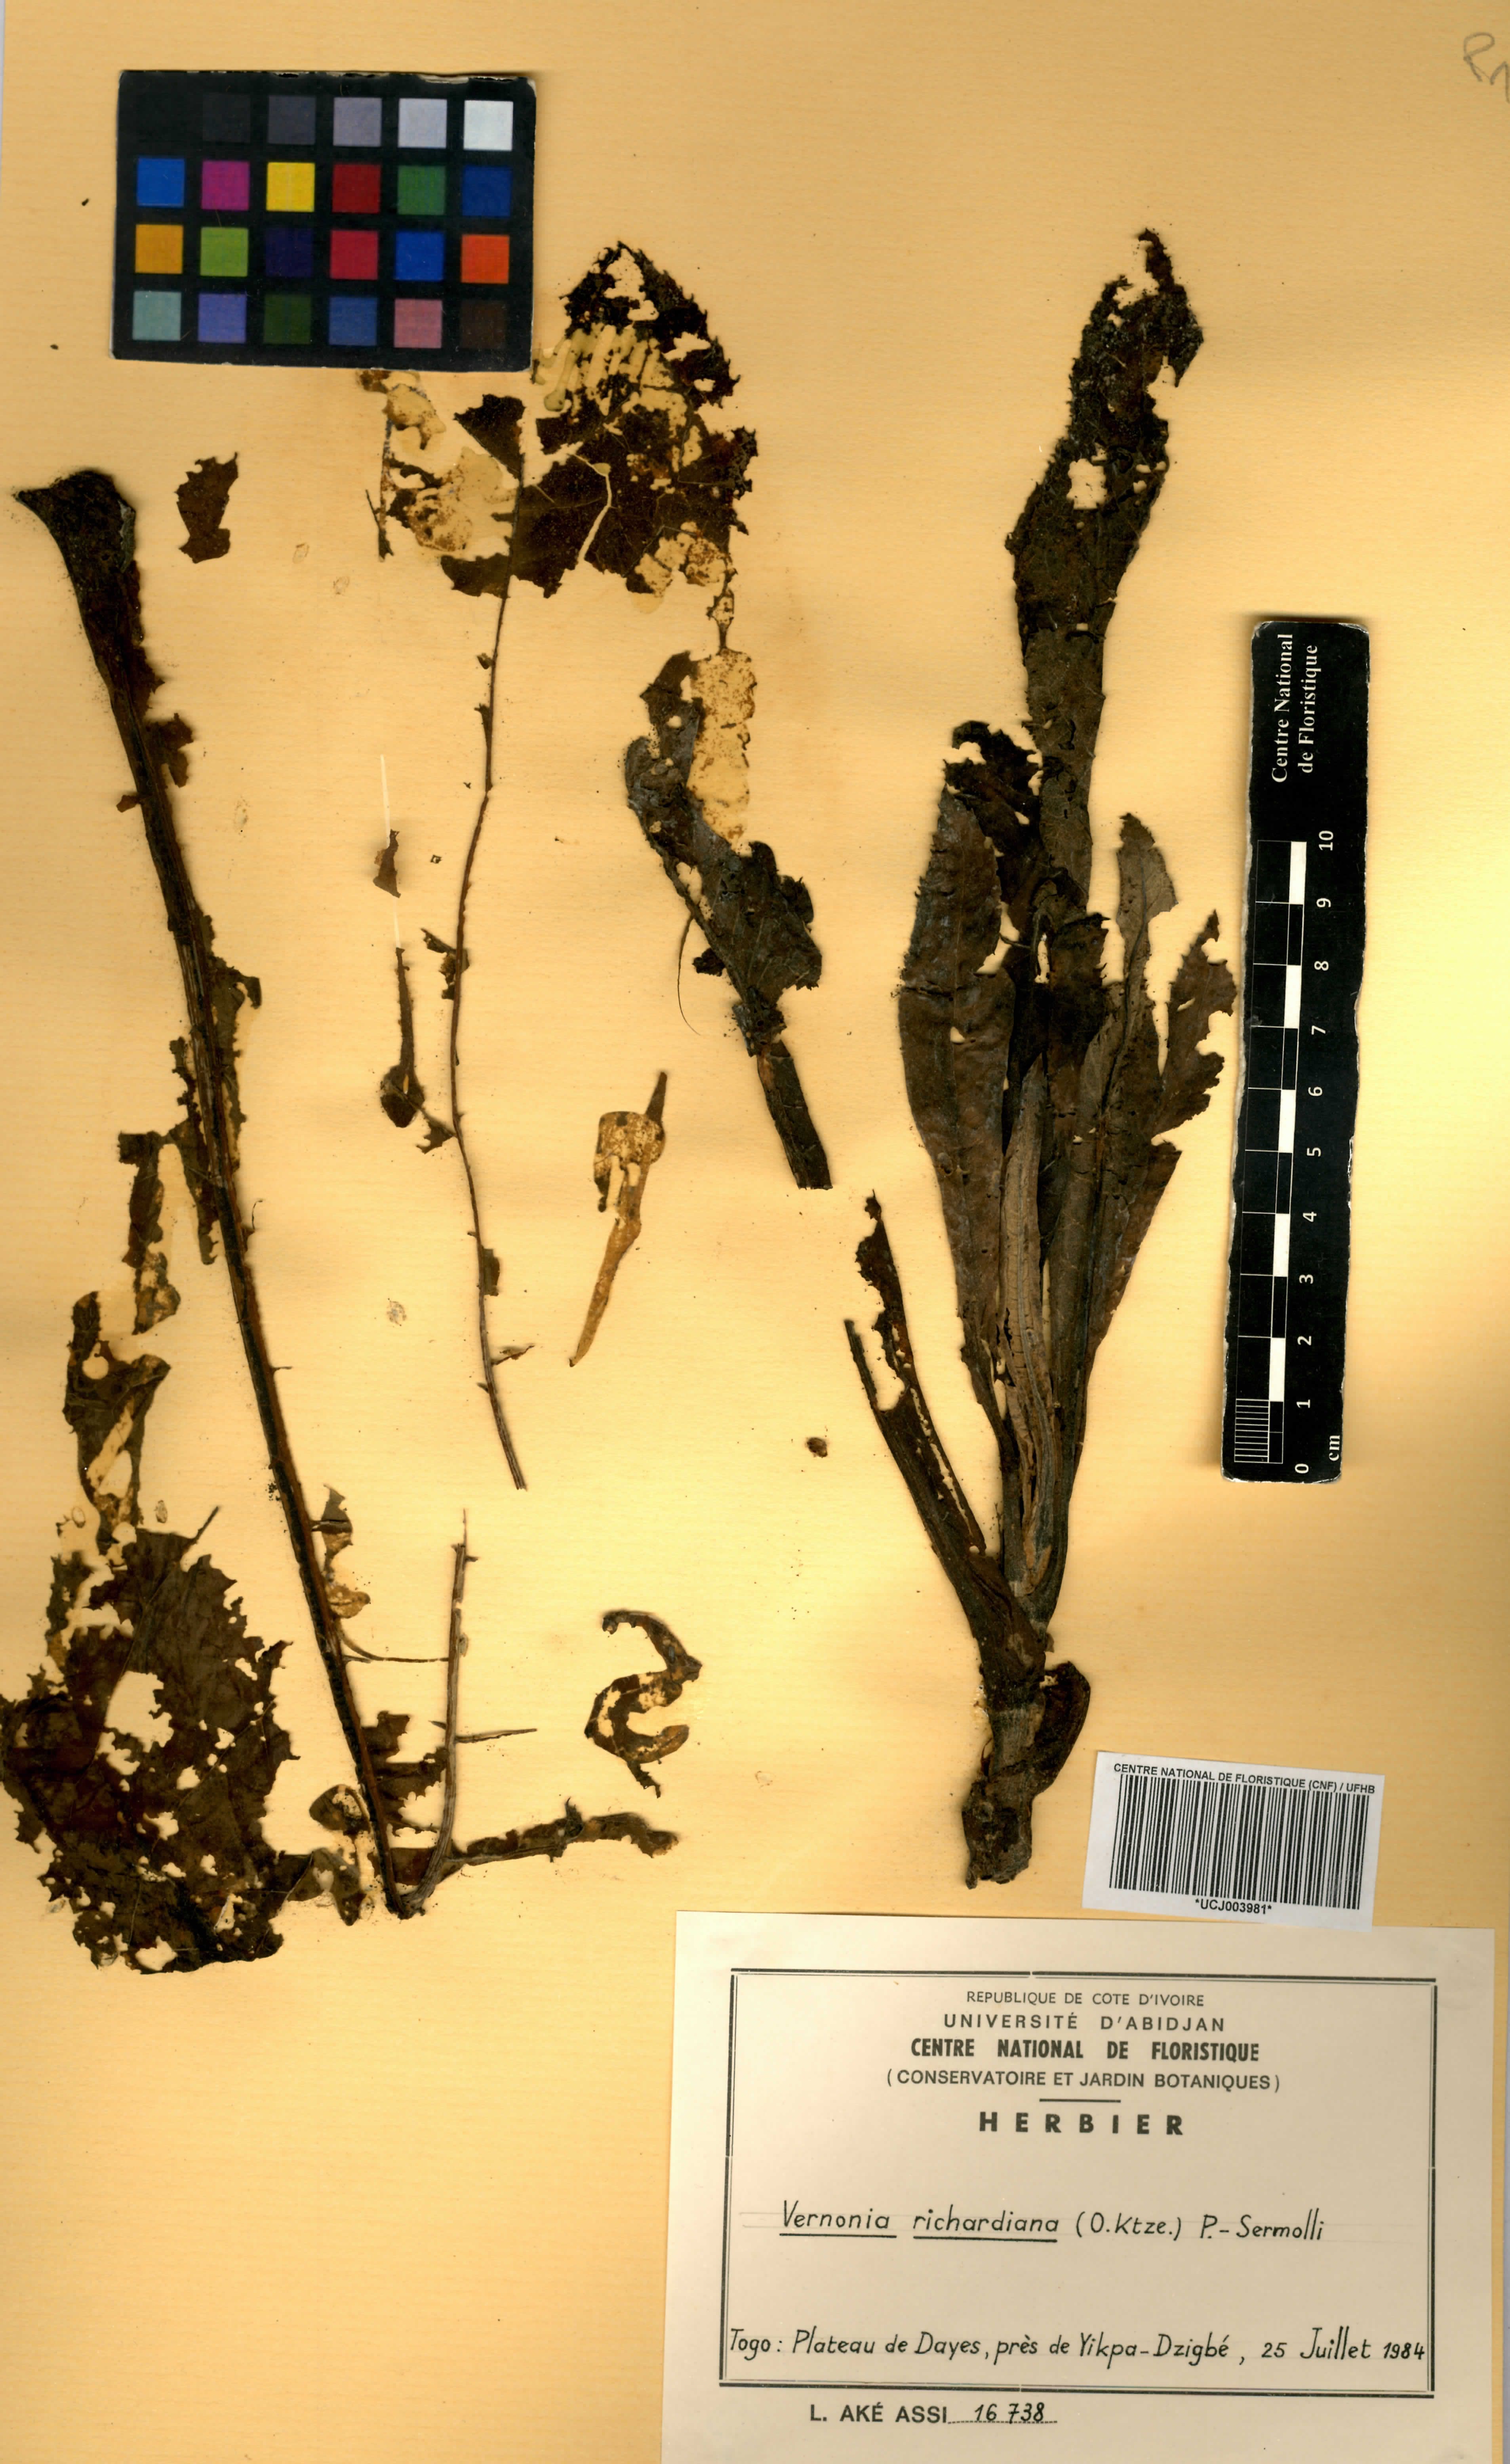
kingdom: Plantae
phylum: Tracheophyta
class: Magnoliopsida
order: Asterales
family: Asteraceae
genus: Gymnanthemum
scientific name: Gymnanthemum theophrastifolium
